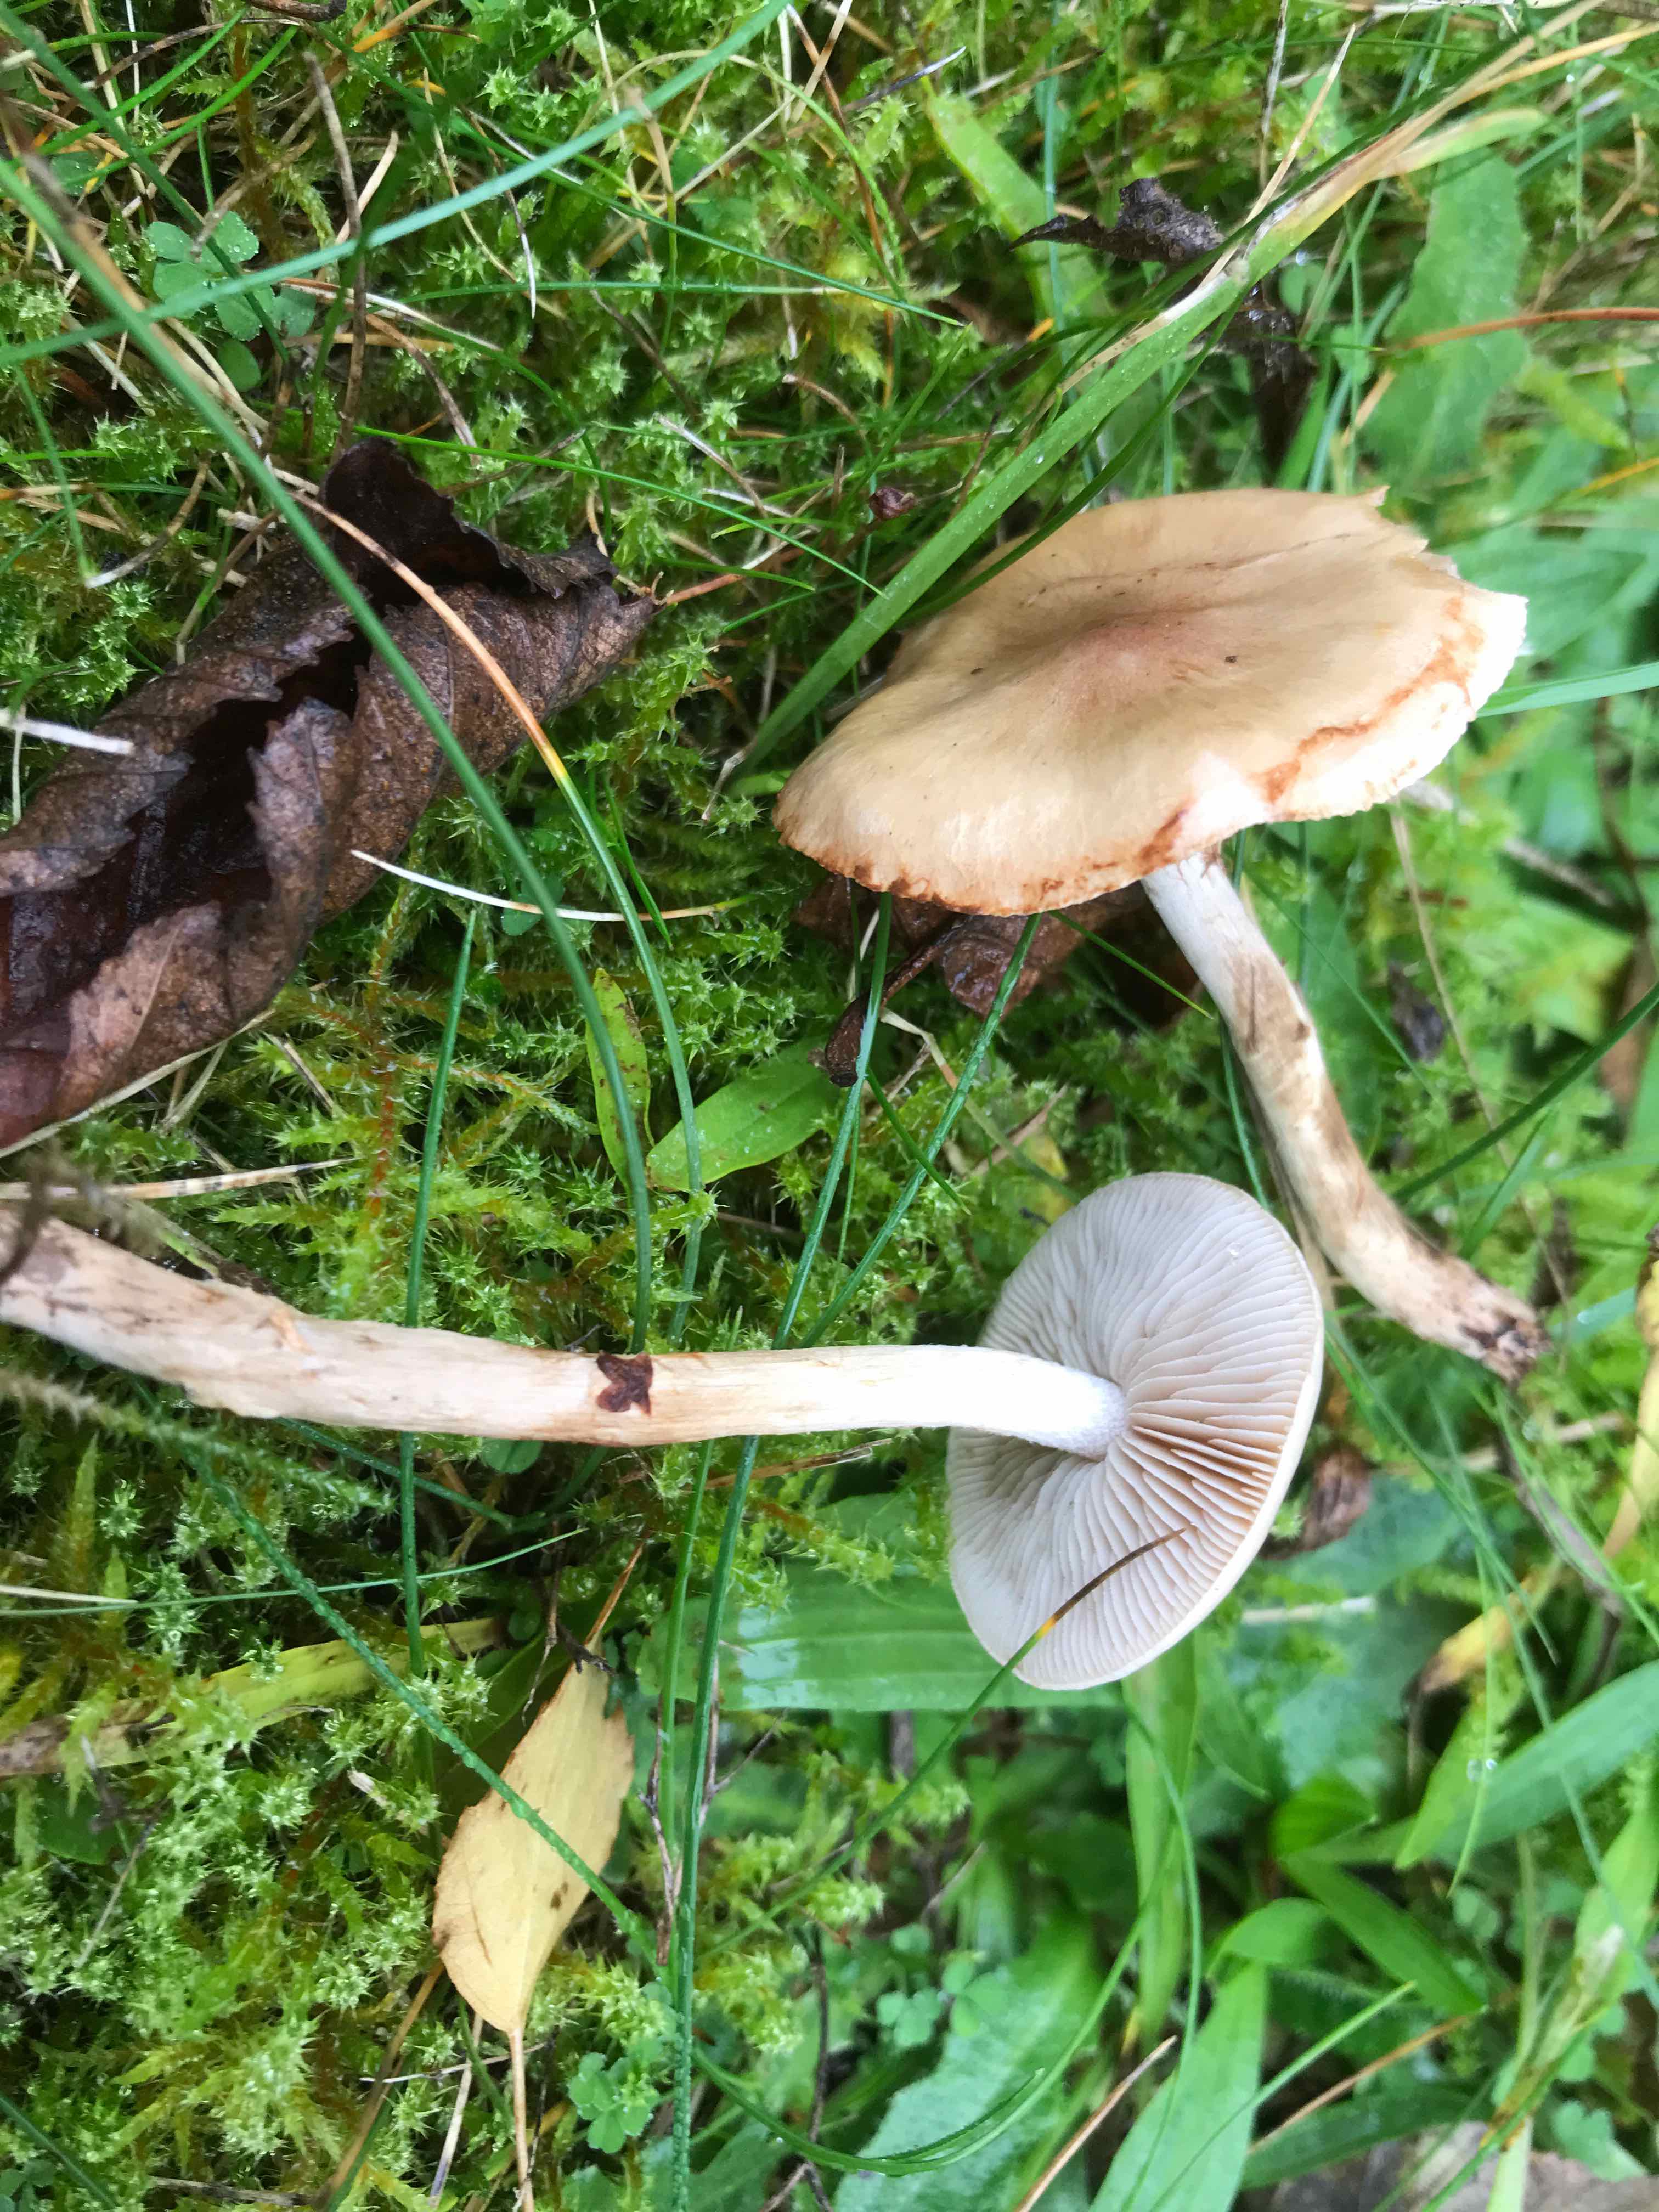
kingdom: Fungi
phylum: Basidiomycota
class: Agaricomycetes
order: Agaricales
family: Hymenogastraceae
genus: Hebeloma
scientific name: Hebeloma mesophaeum
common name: lerbrun tåreblad
